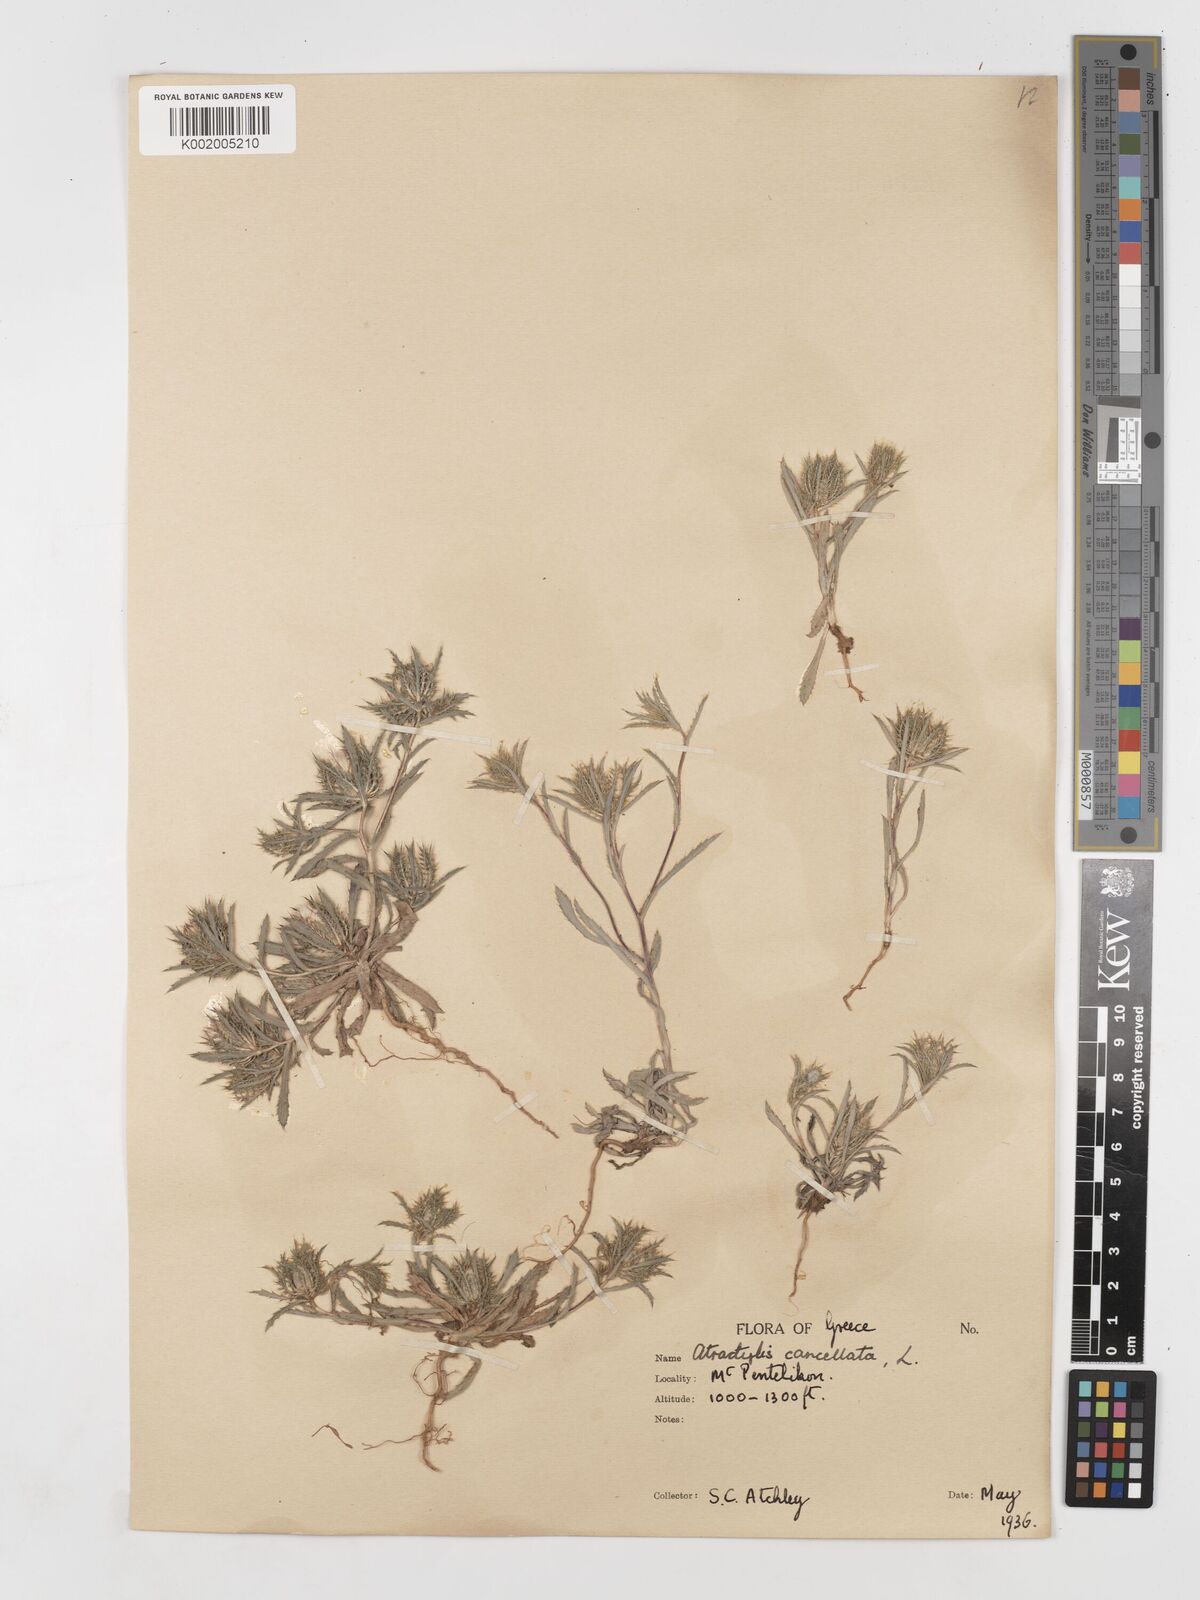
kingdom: Plantae
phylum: Tracheophyta
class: Magnoliopsida
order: Asterales
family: Asteraceae
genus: Atractylis
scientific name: Atractylis cancellata
